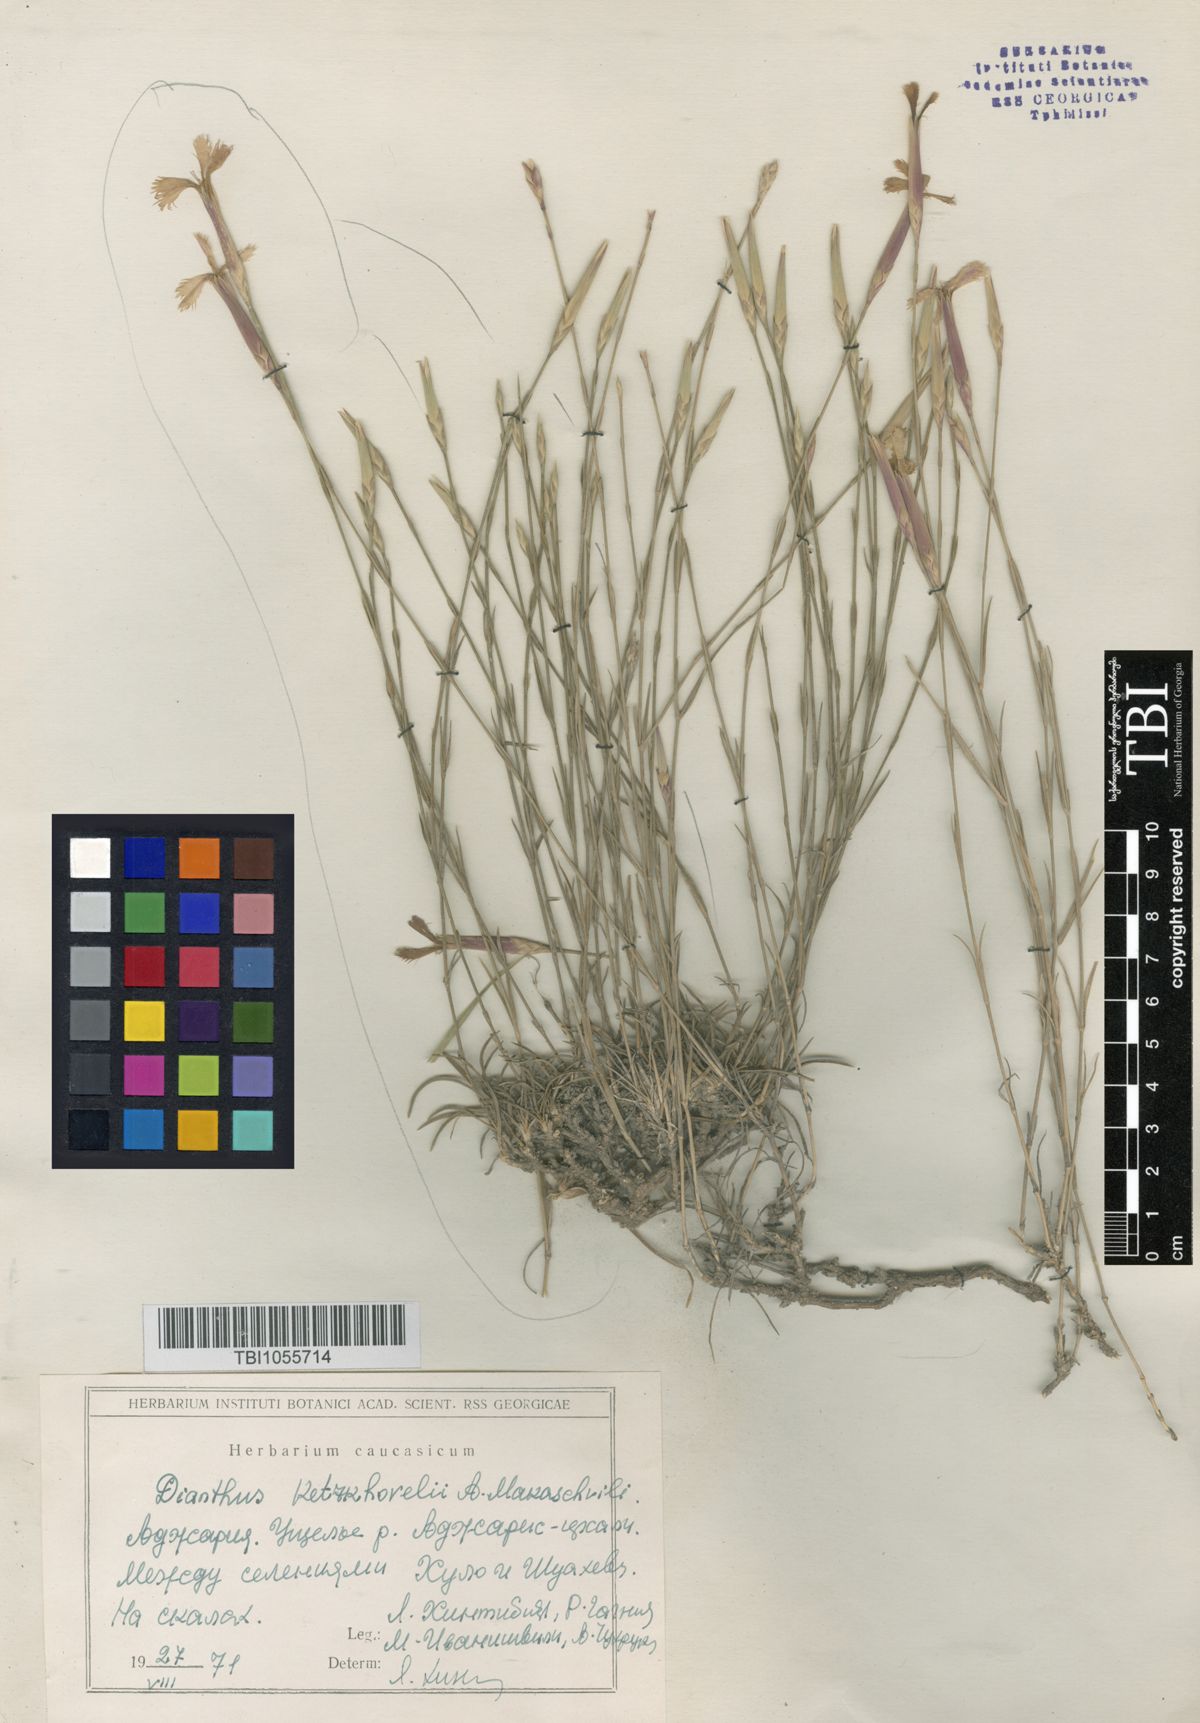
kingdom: Plantae
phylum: Tracheophyta
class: Magnoliopsida
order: Caryophyllales
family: Caryophyllaceae
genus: Dianthus
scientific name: Dianthus orientalis
